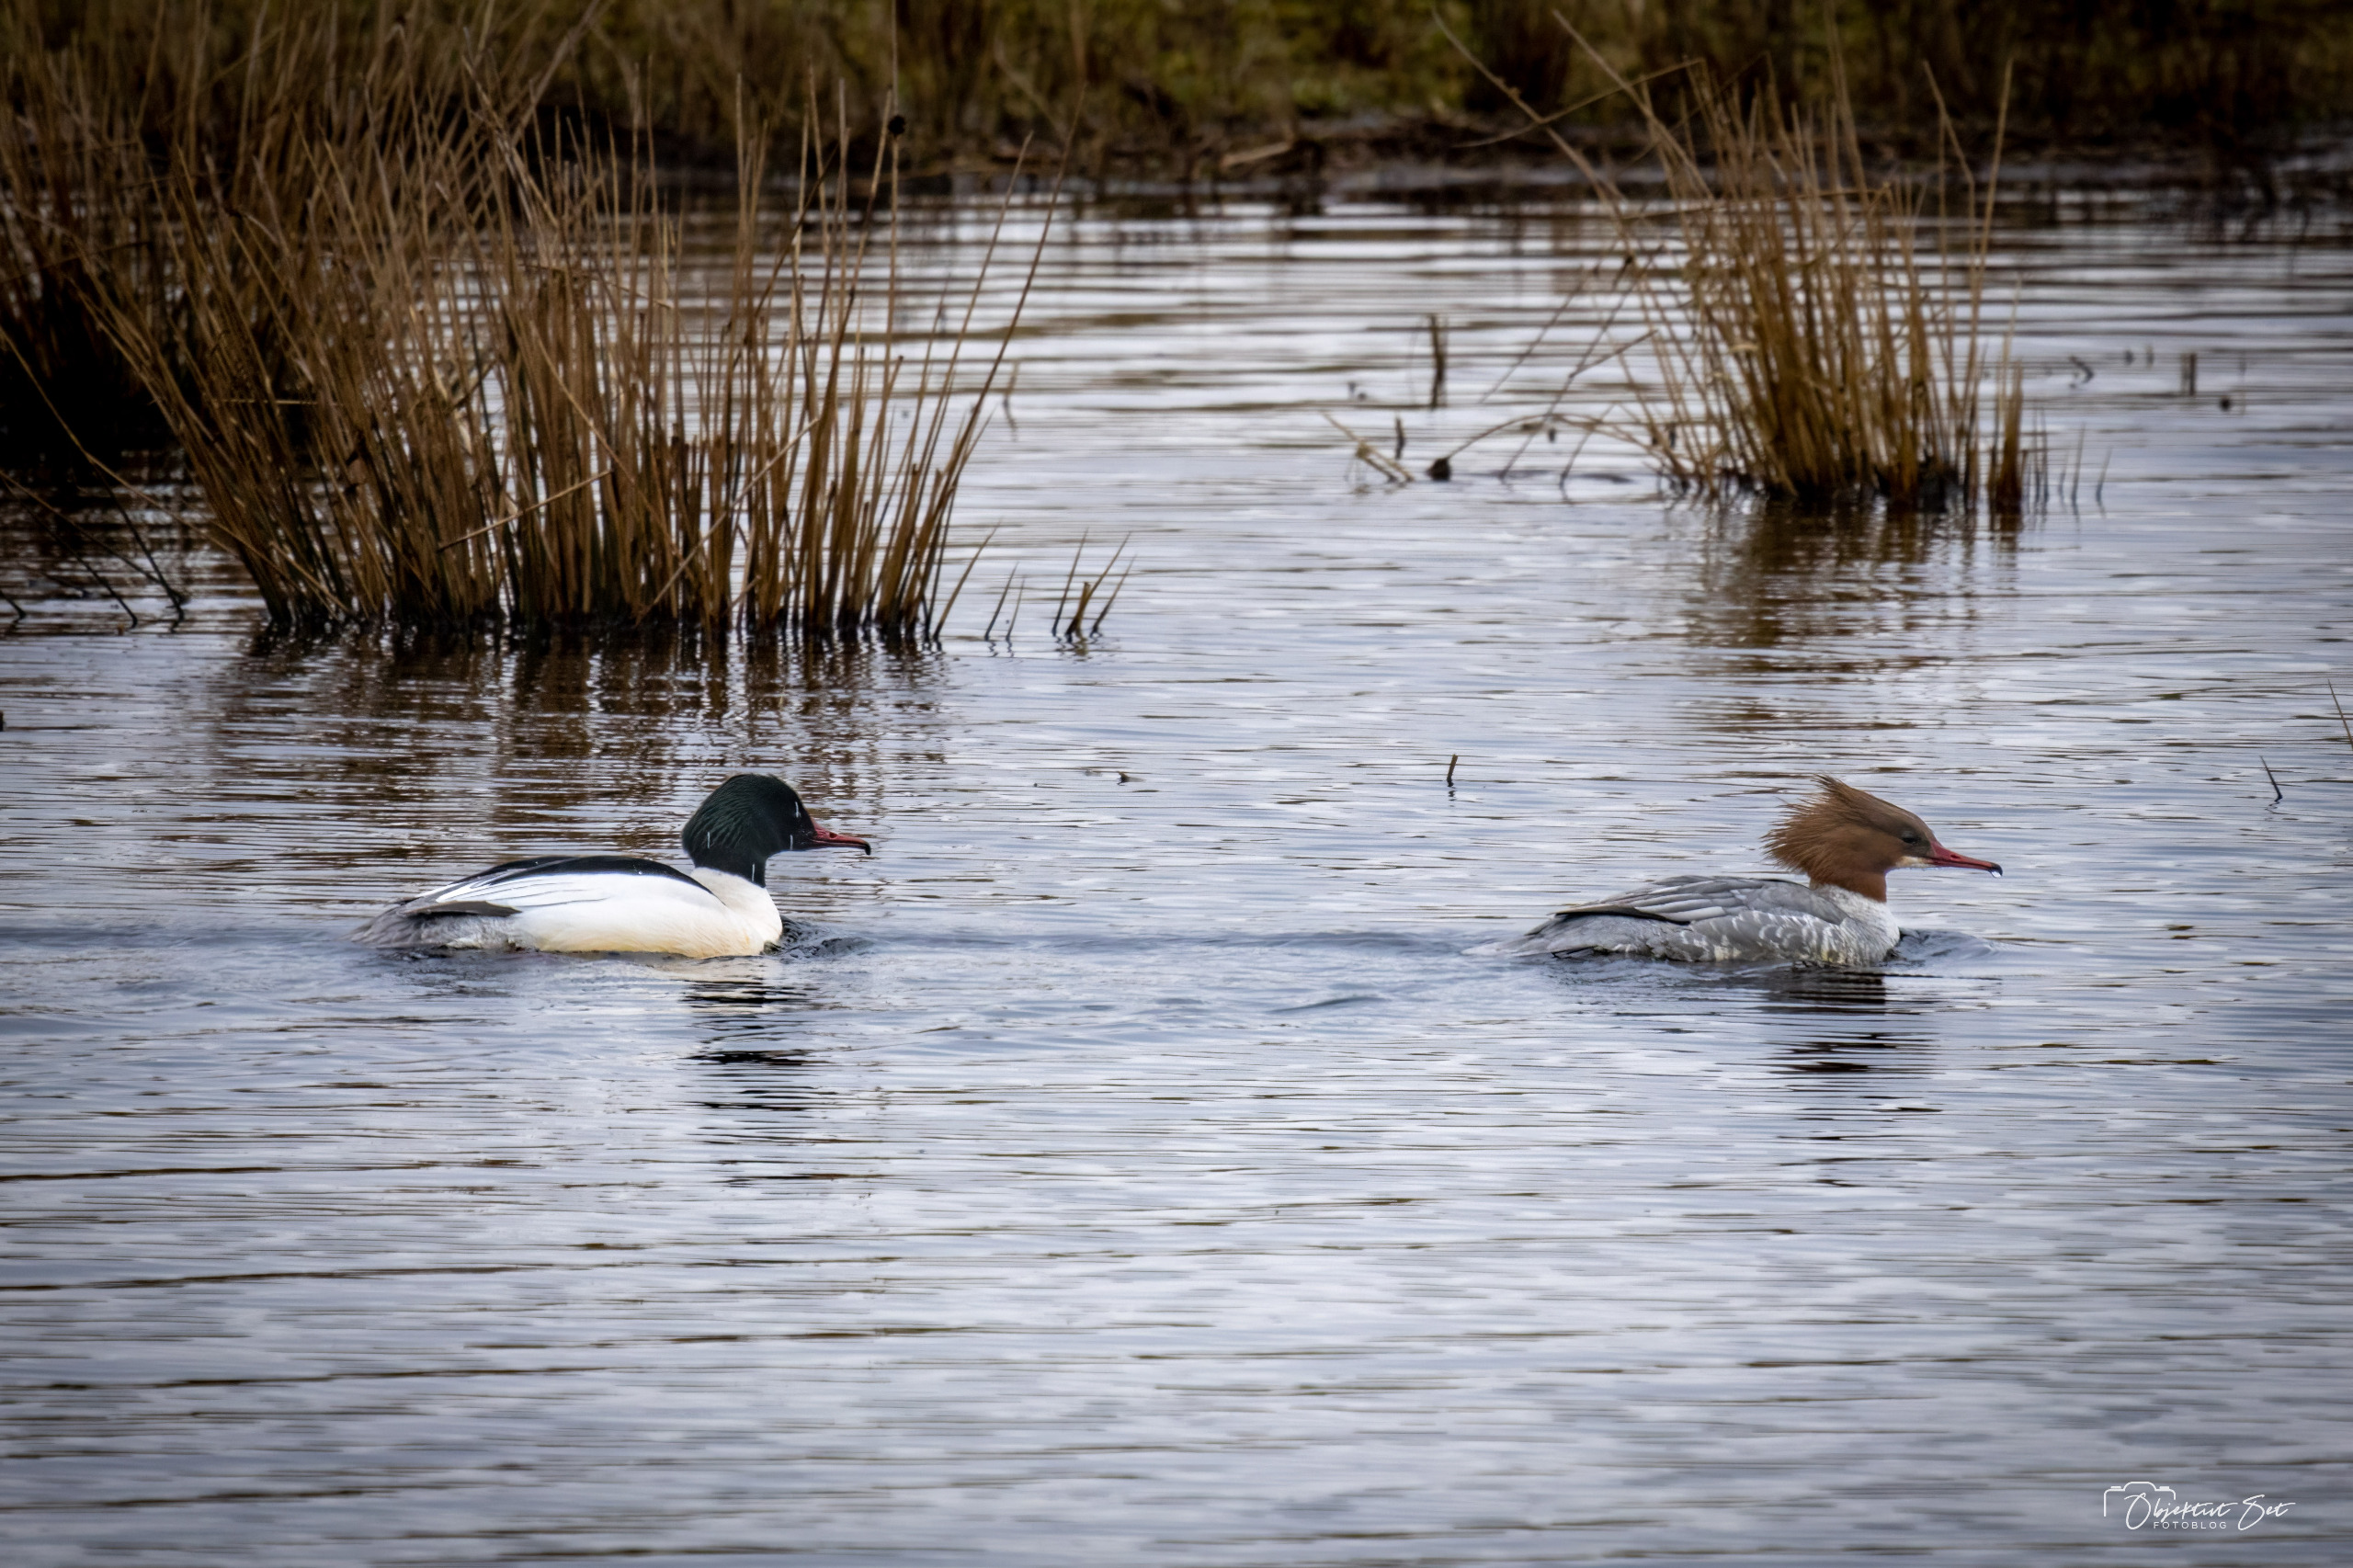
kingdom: Animalia
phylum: Chordata
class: Aves
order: Anseriformes
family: Anatidae
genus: Mergus
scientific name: Mergus merganser
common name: Stor skallesluger
